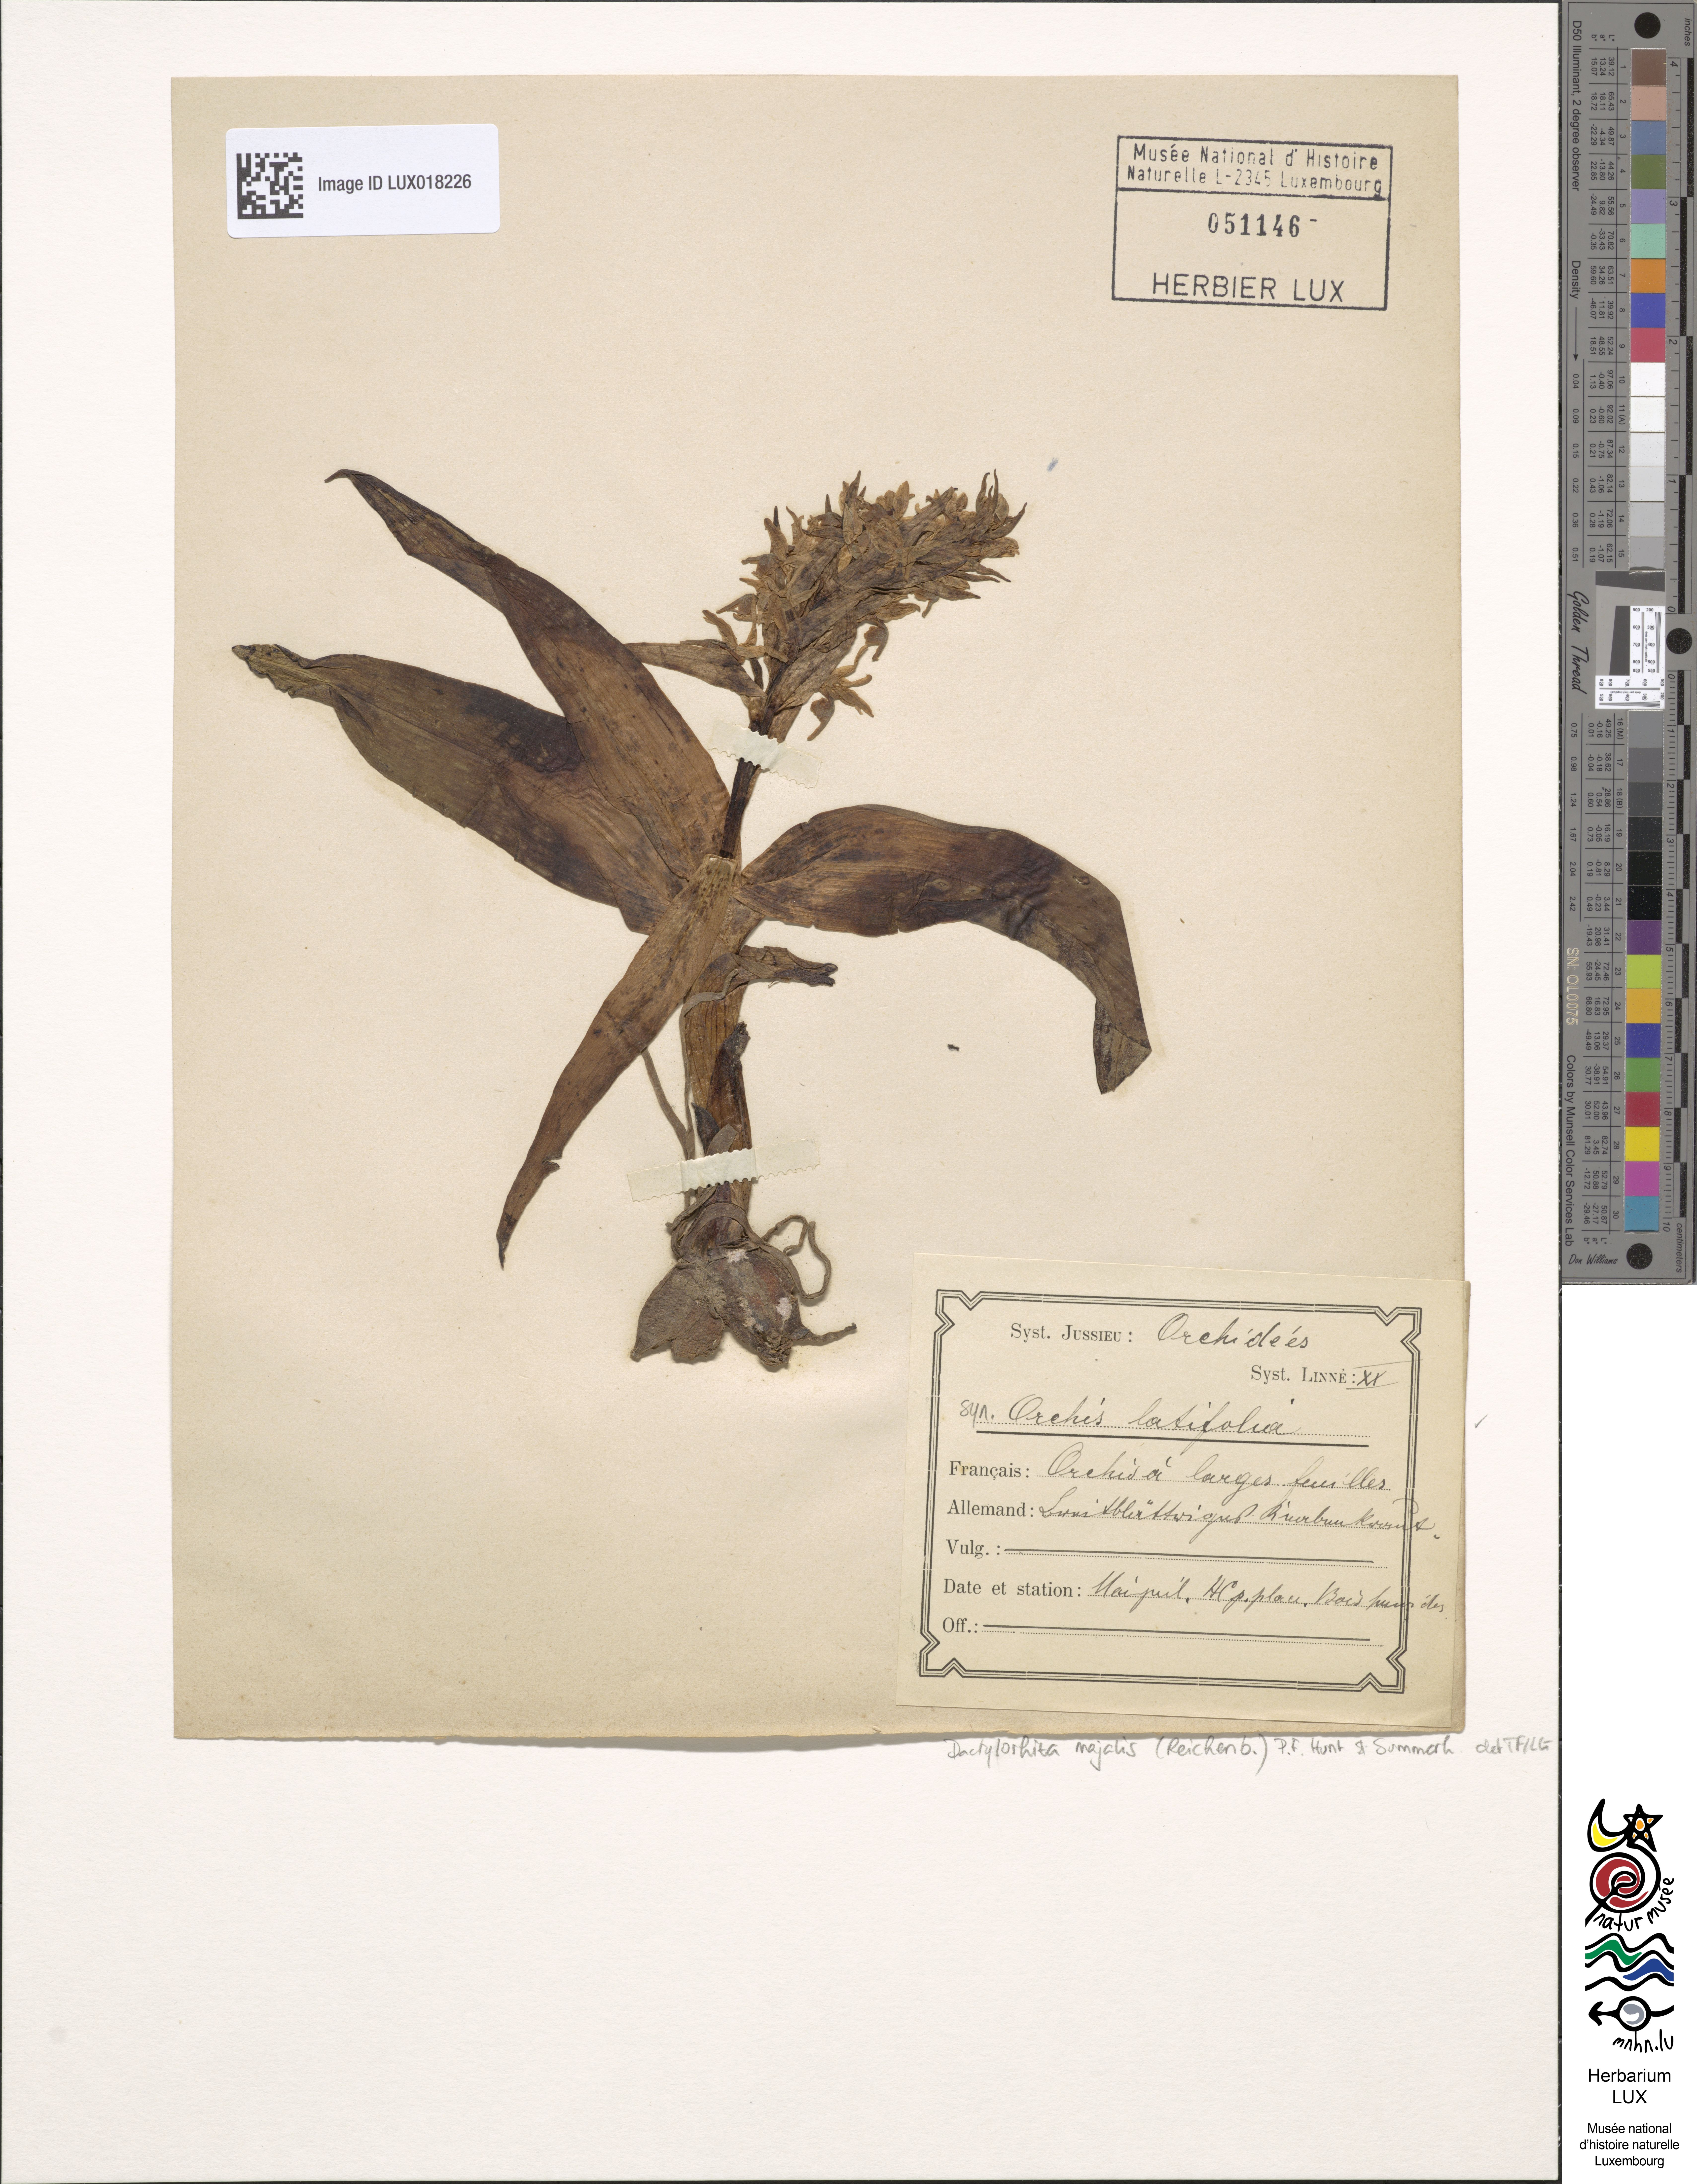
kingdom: Plantae
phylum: Tracheophyta
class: Liliopsida
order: Asparagales
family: Orchidaceae
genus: Dactylorhiza
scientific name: Dactylorhiza majalis
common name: Marsh orchid
